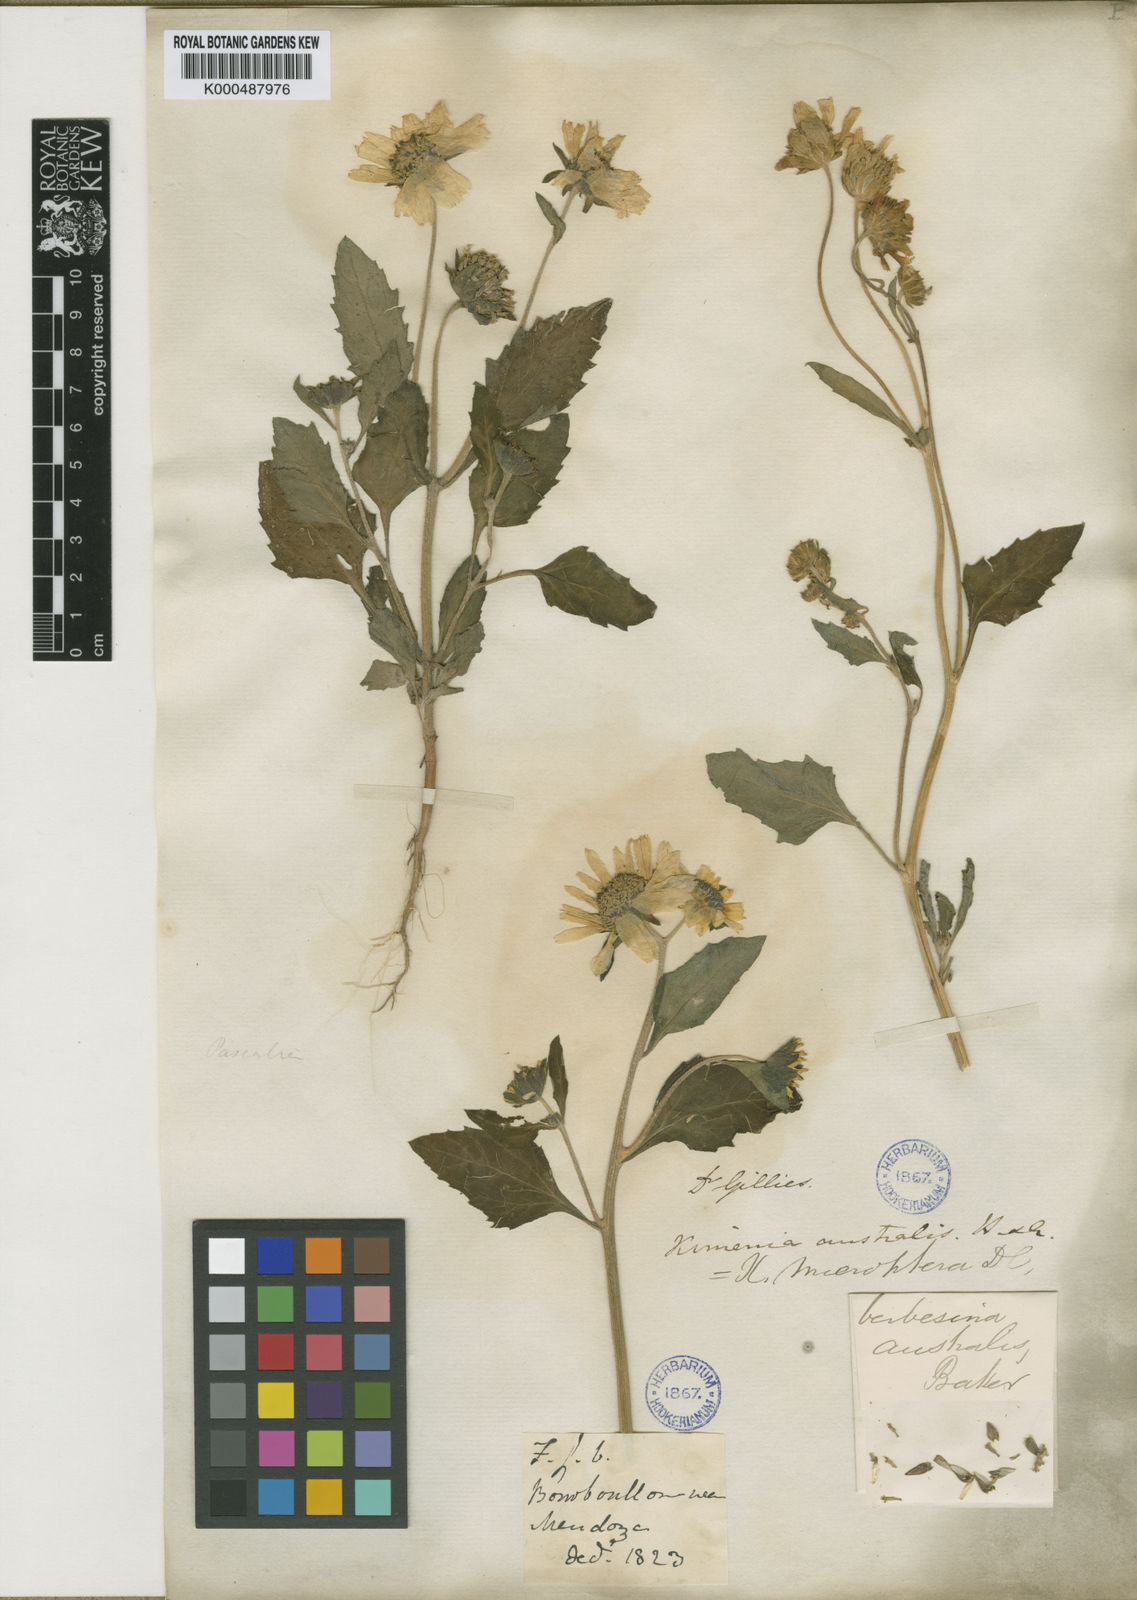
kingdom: Plantae
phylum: Tracheophyta
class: Magnoliopsida
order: Asterales
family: Asteraceae
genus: Verbesina
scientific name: Verbesina encelioides
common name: Golden crownbeard
